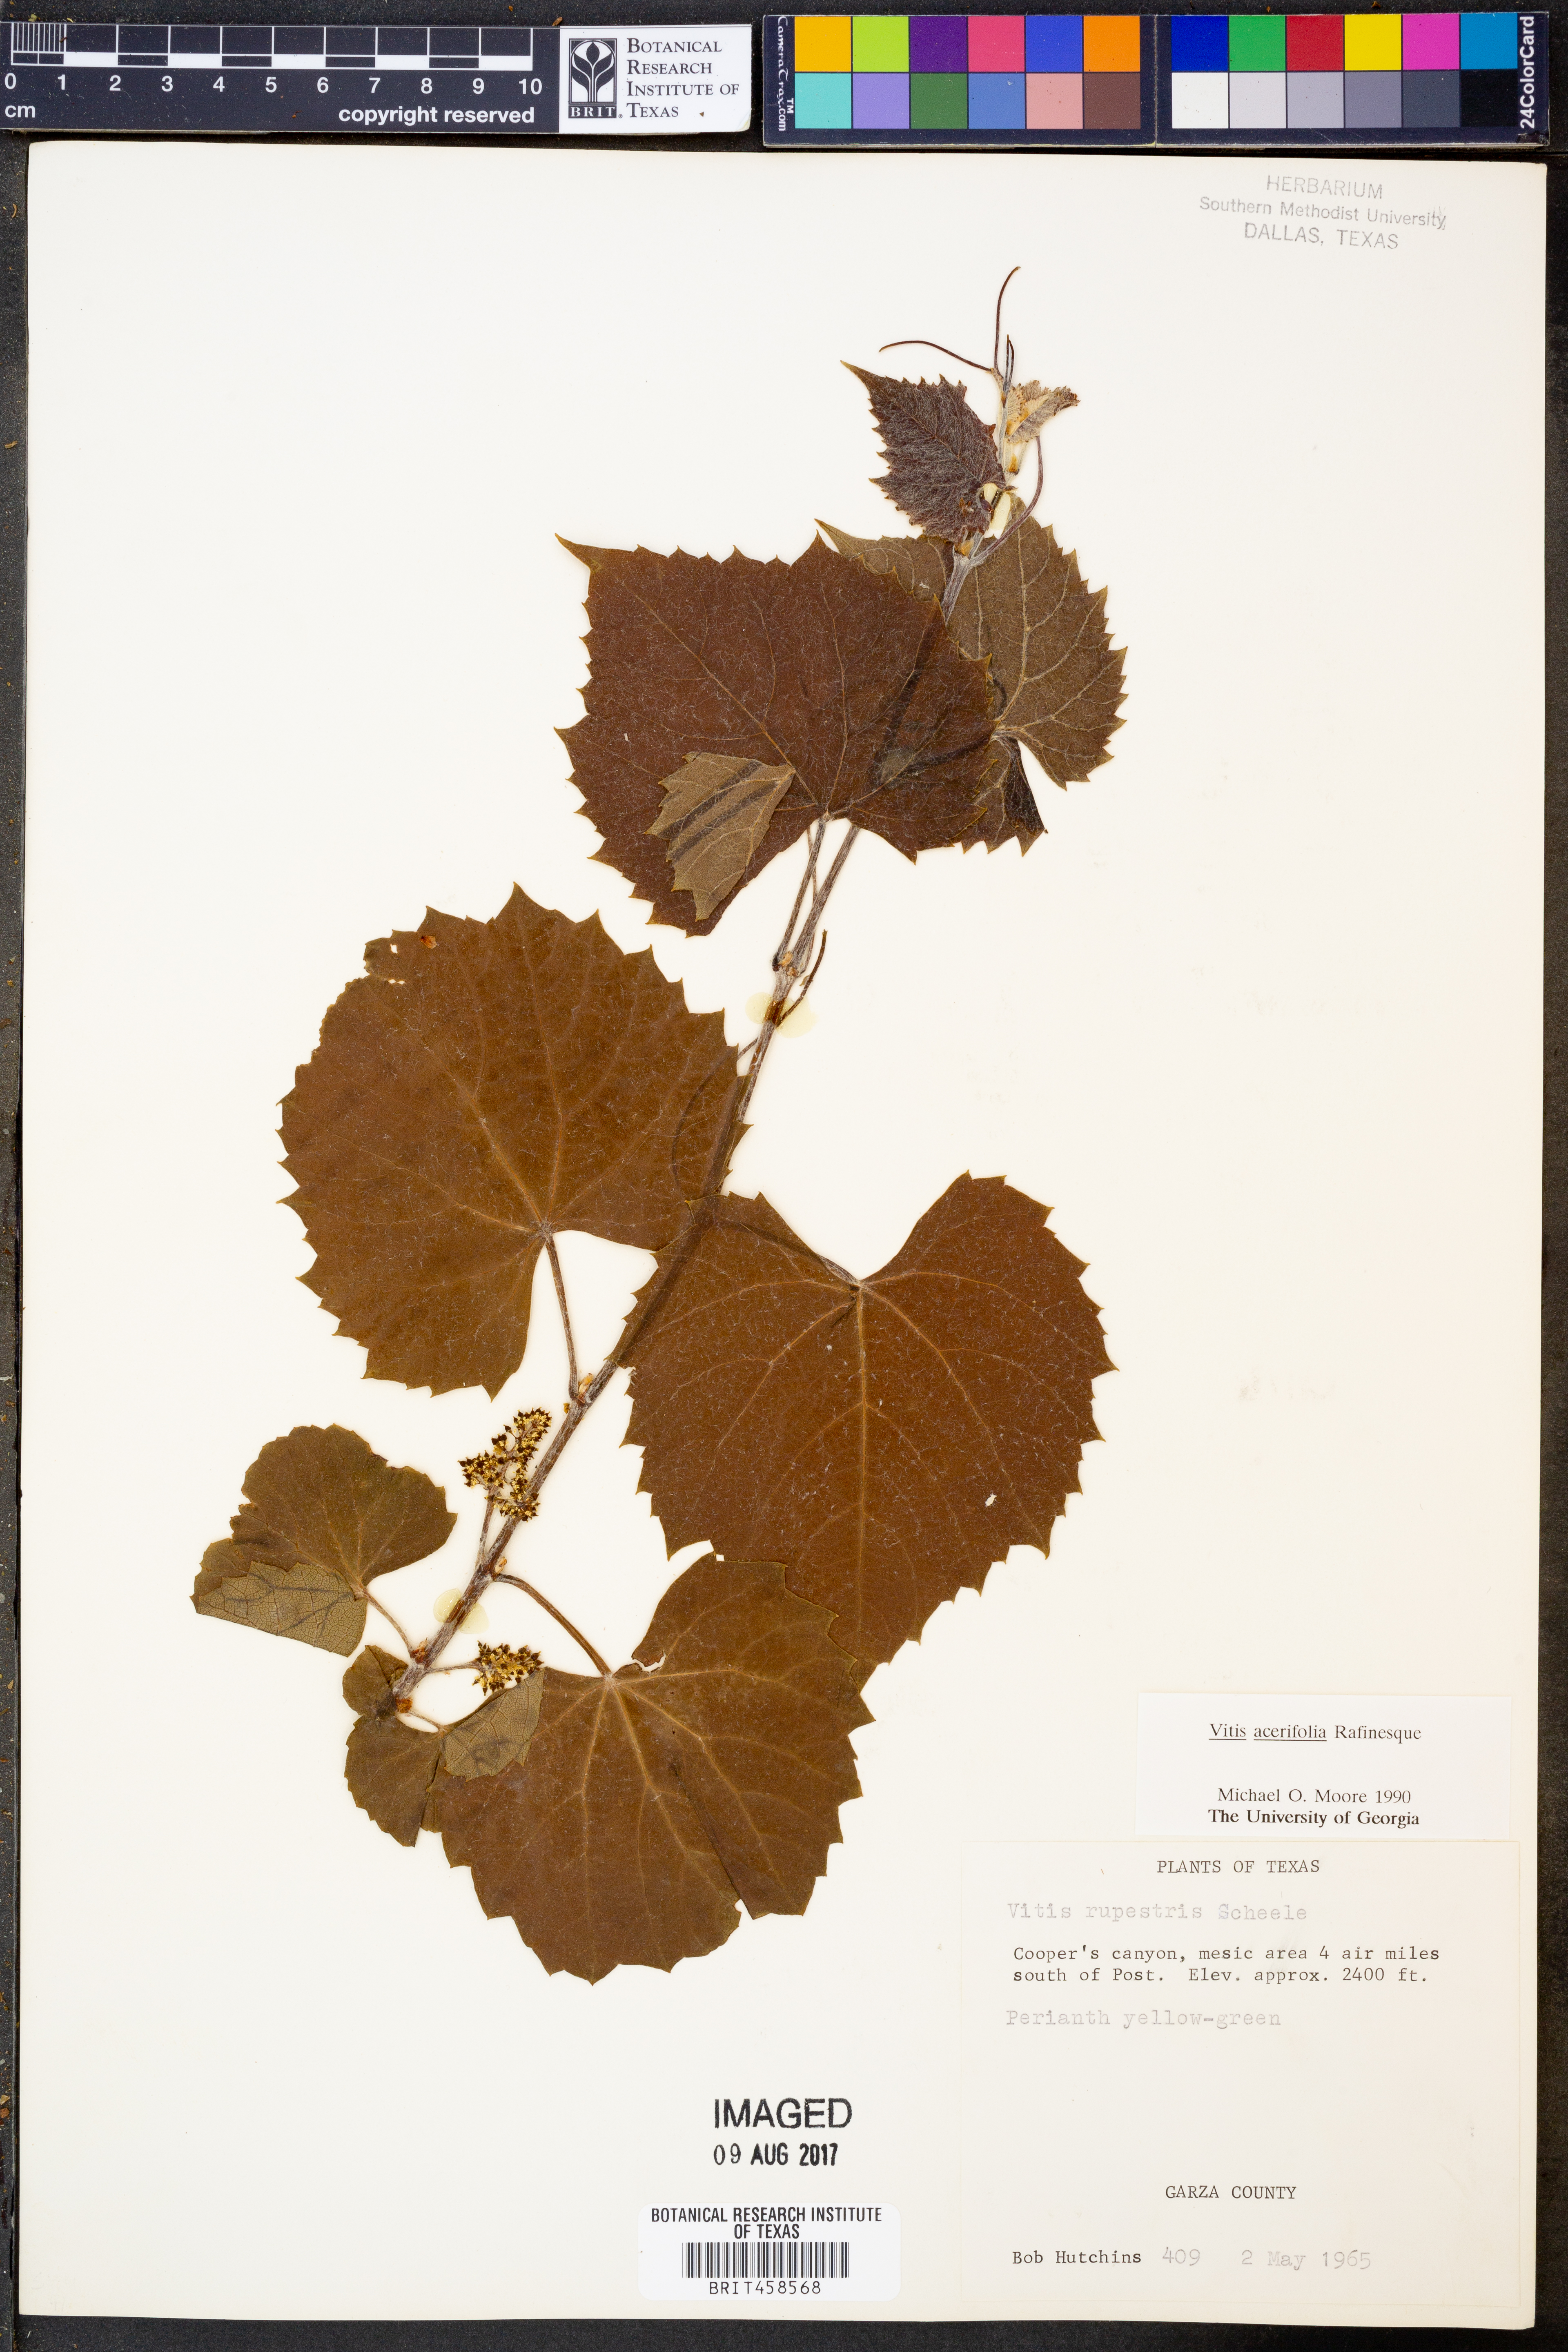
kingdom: Plantae
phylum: Tracheophyta
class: Magnoliopsida
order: Vitales
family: Vitaceae
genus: Vitis
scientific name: Vitis acerifolia
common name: Bush grape
